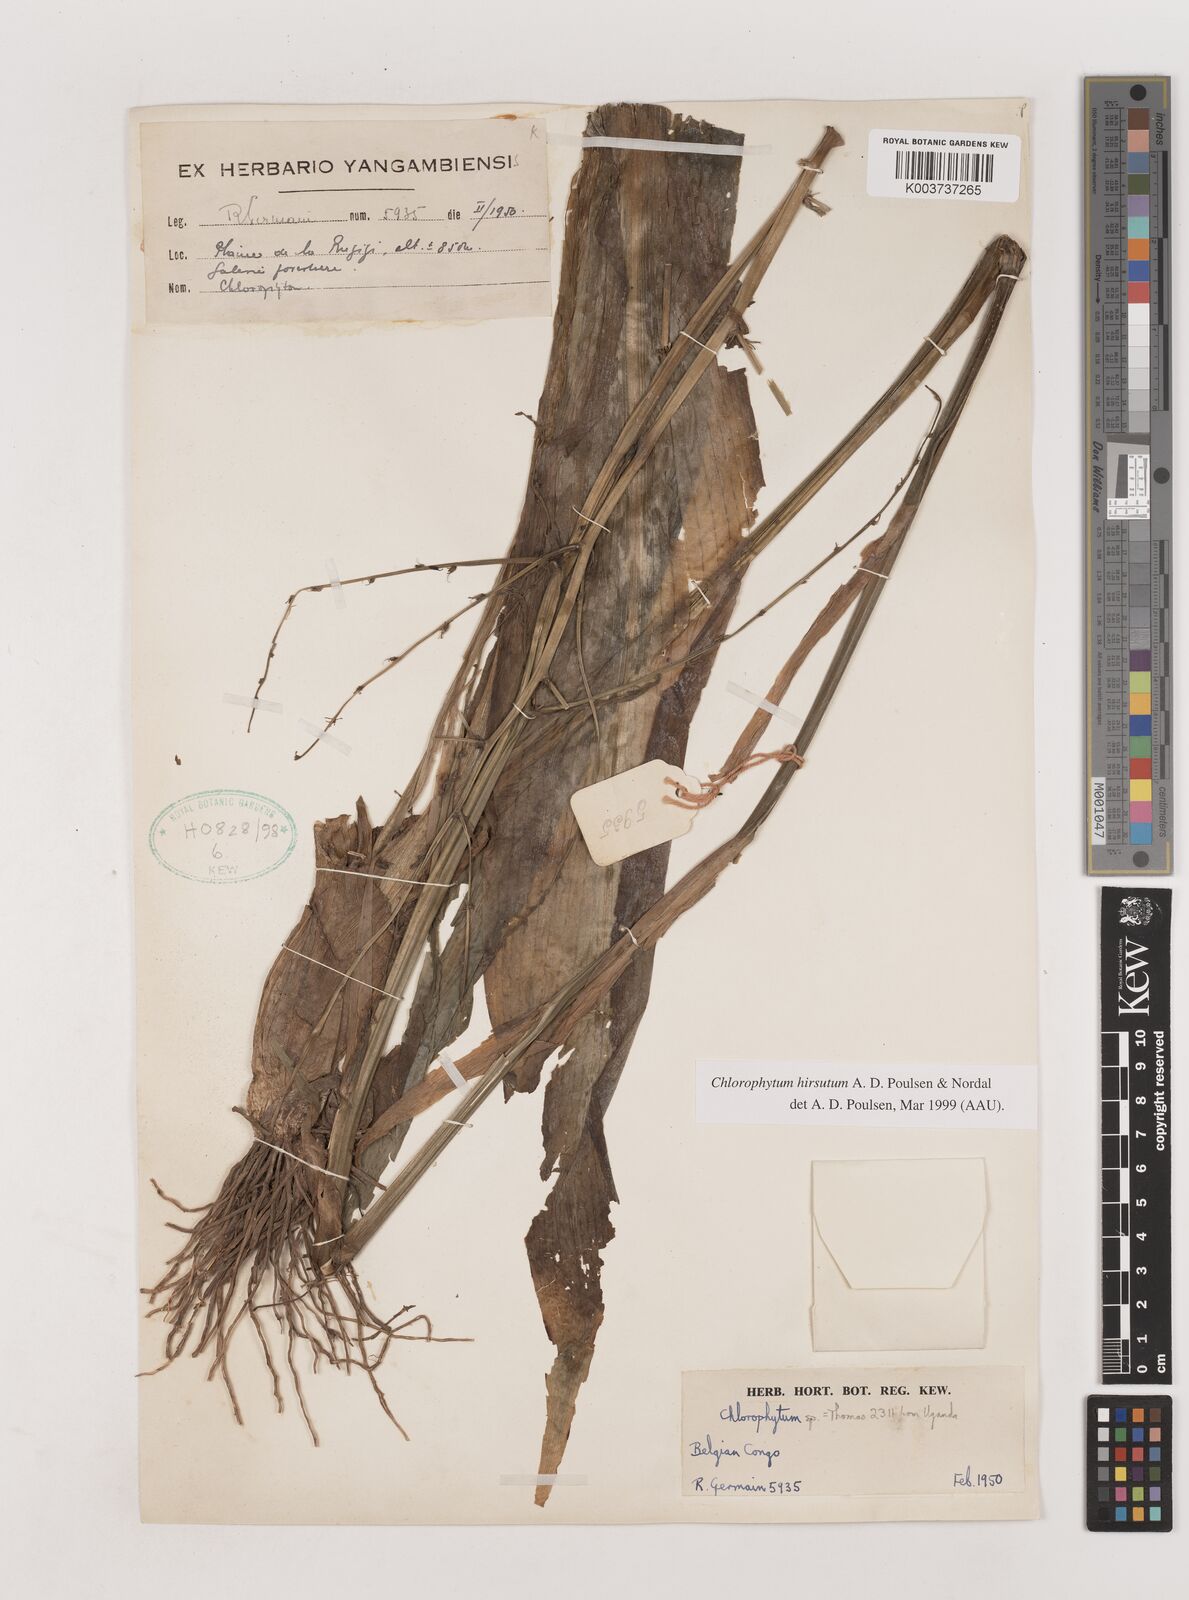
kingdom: Plantae
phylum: Tracheophyta
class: Liliopsida
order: Asparagales
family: Asparagaceae
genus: Chlorophytum
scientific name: Chlorophytum hirsutum
